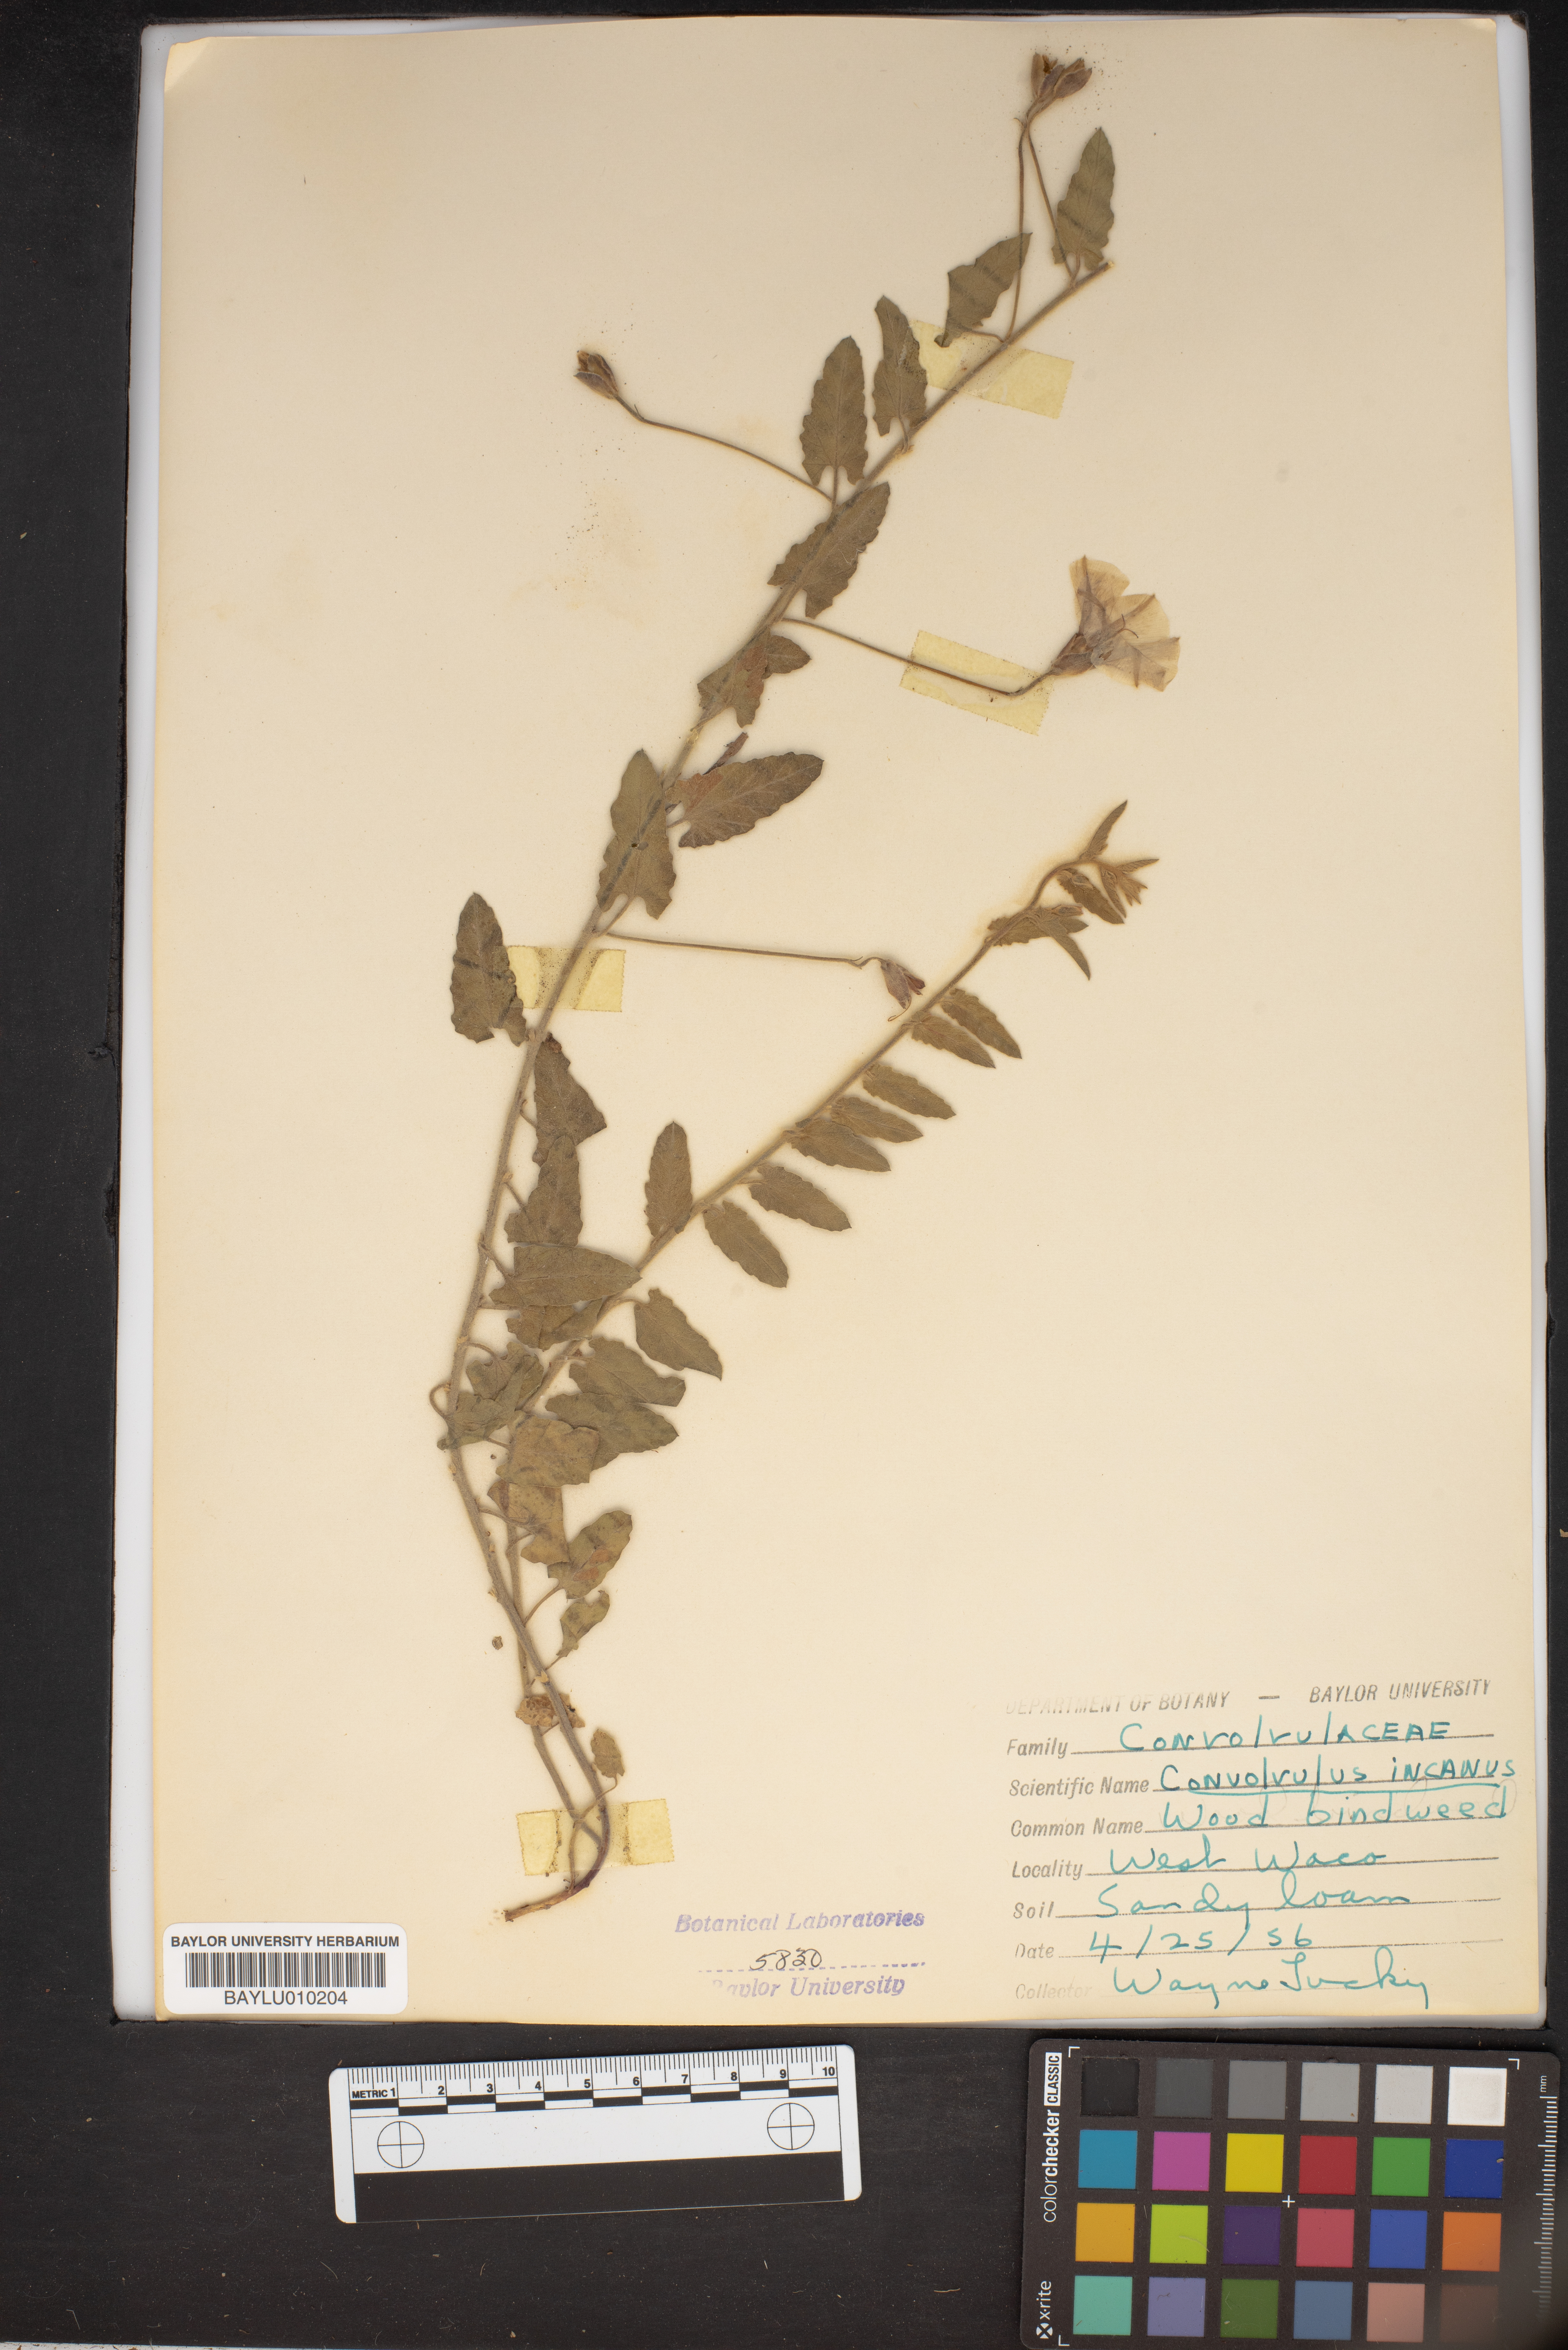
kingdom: Plantae
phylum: Tracheophyta
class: Magnoliopsida
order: Solanales
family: Convolvulaceae
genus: Convolvulus
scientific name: Convolvulus hermanniae
